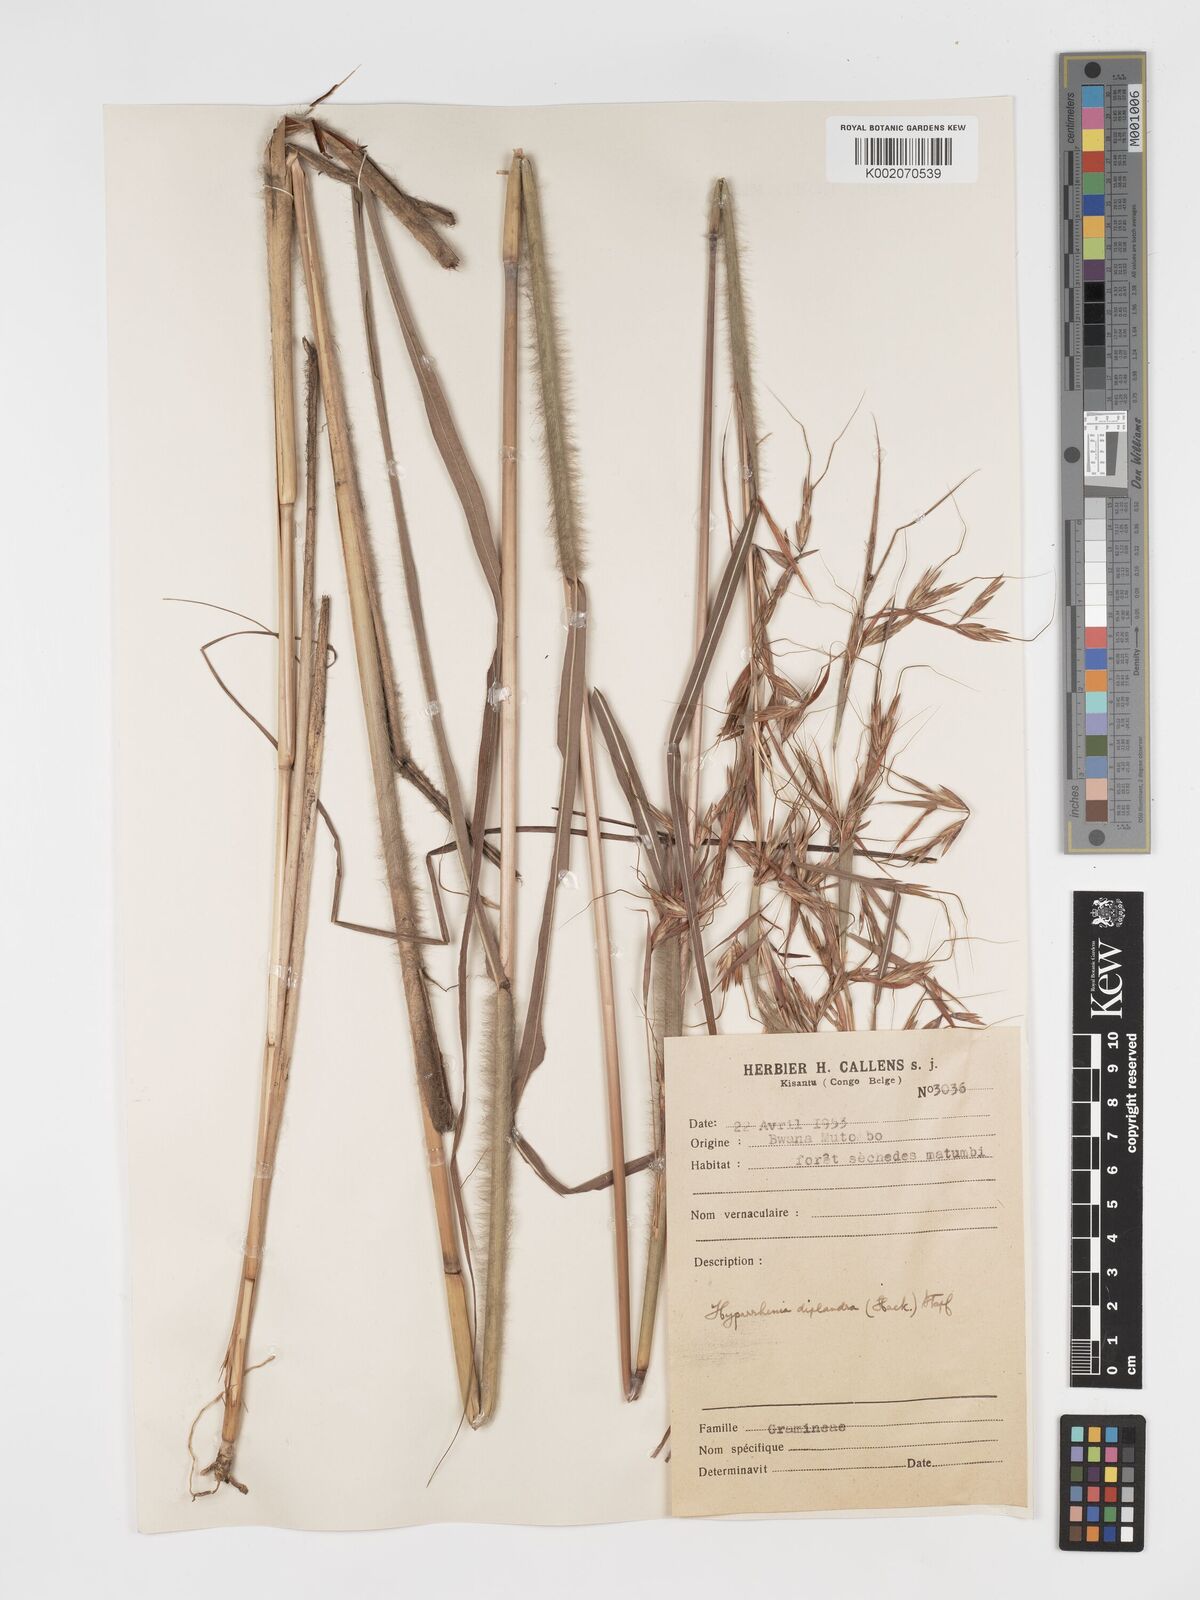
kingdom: Plantae
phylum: Tracheophyta
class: Liliopsida
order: Poales
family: Poaceae
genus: Hyparrhenia
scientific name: Hyparrhenia diplandra
